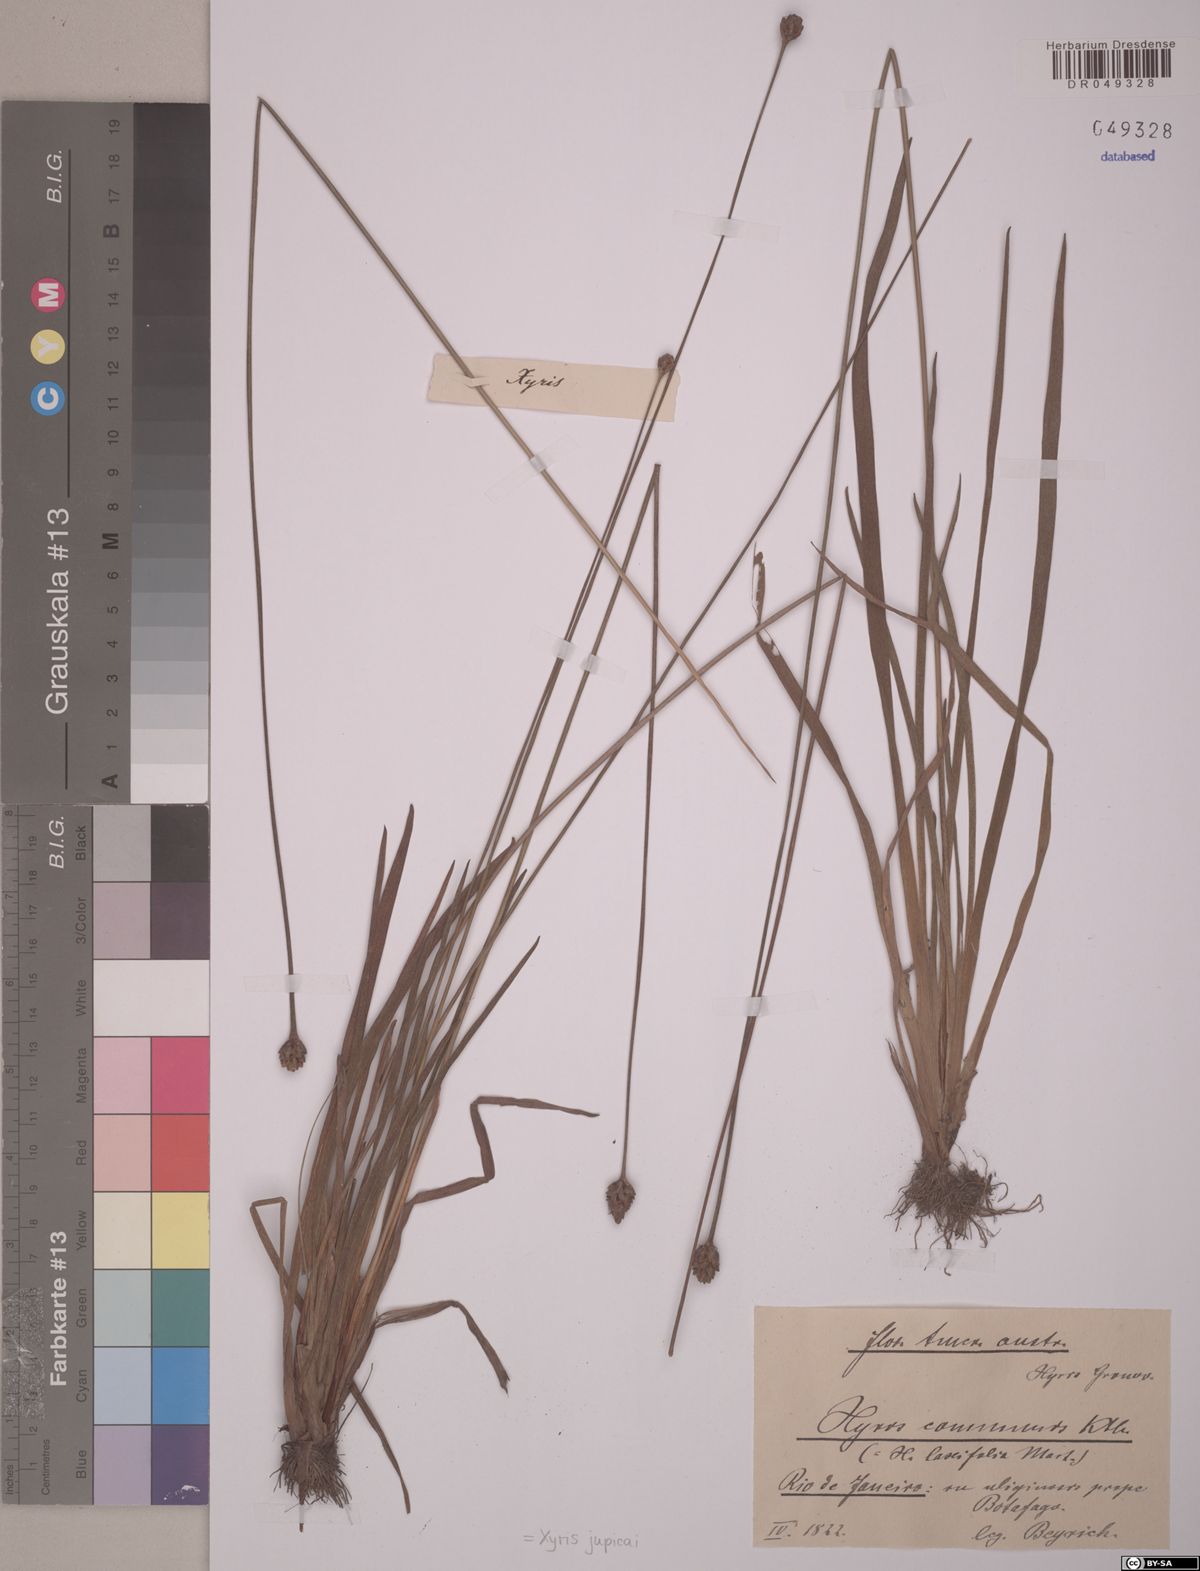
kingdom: Plantae
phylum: Tracheophyta
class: Liliopsida
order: Poales
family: Xyridaceae
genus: Xyris
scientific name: Xyris jupicai
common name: Richard's yelloweyed grass
